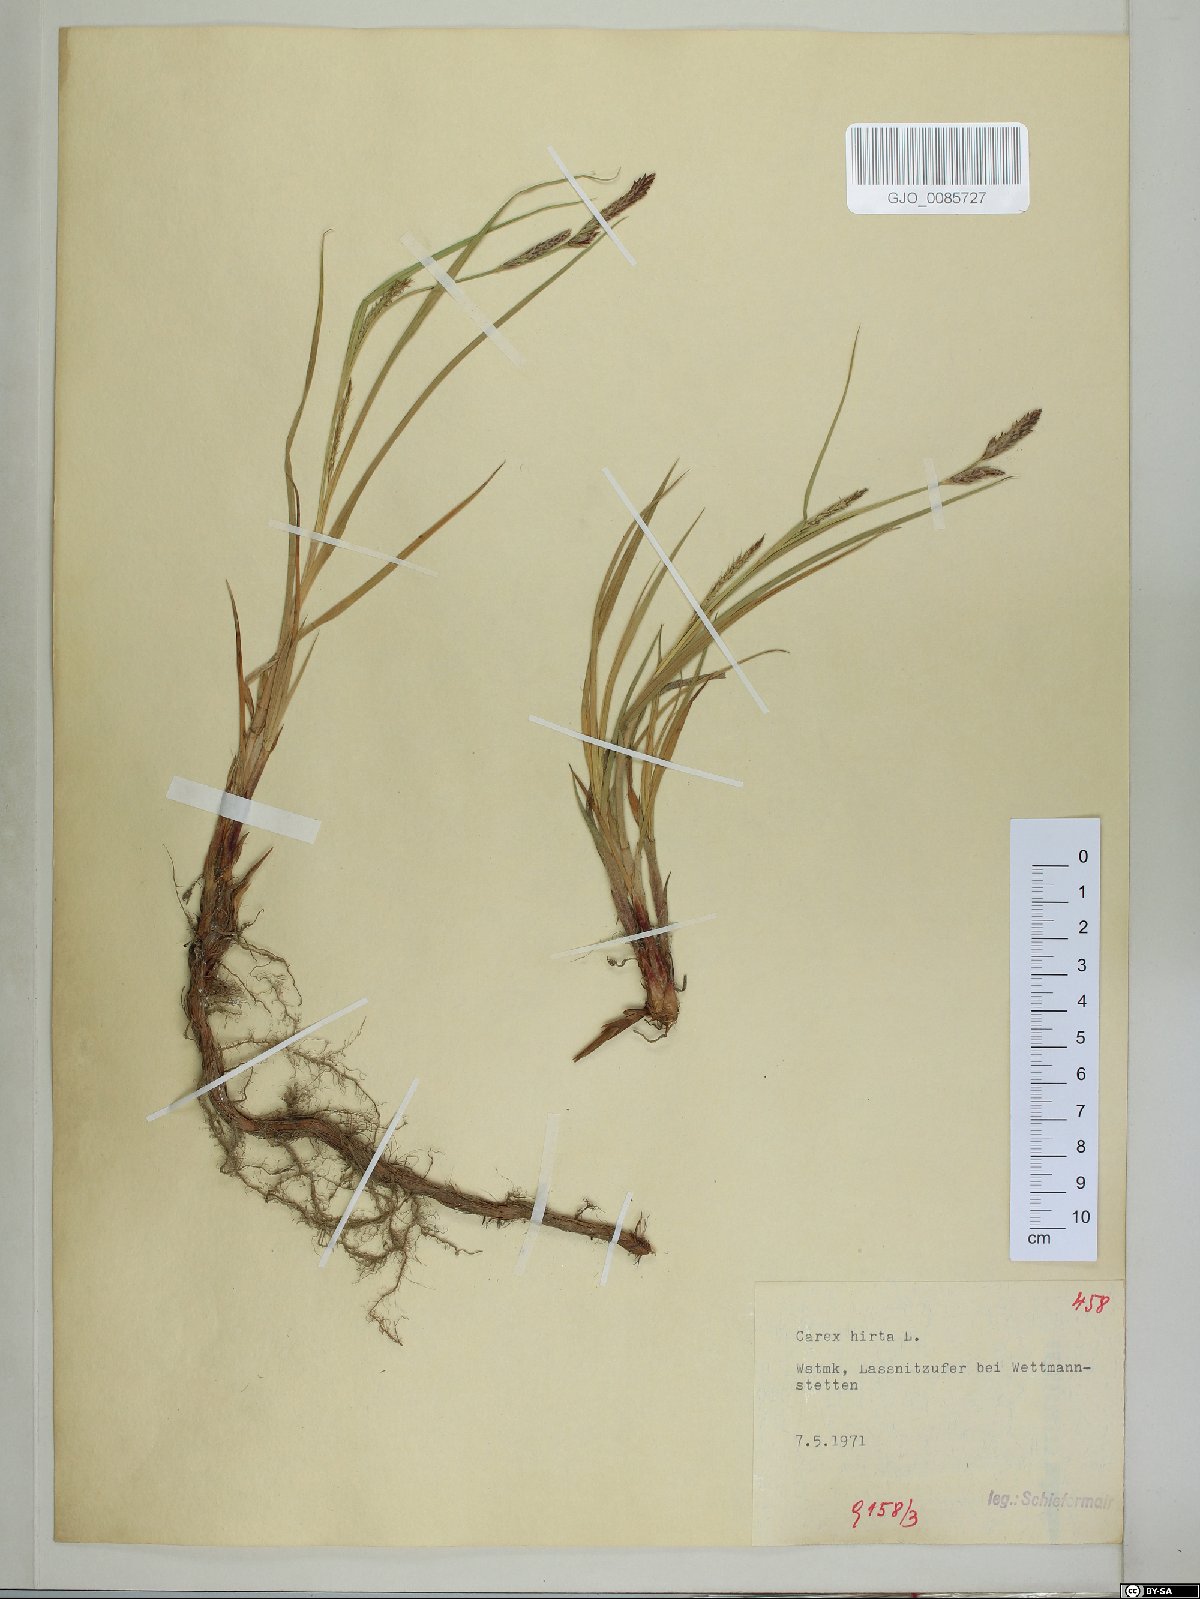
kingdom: Plantae
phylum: Tracheophyta
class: Liliopsida
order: Poales
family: Cyperaceae
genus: Carex
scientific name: Carex hirta
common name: Hairy sedge
